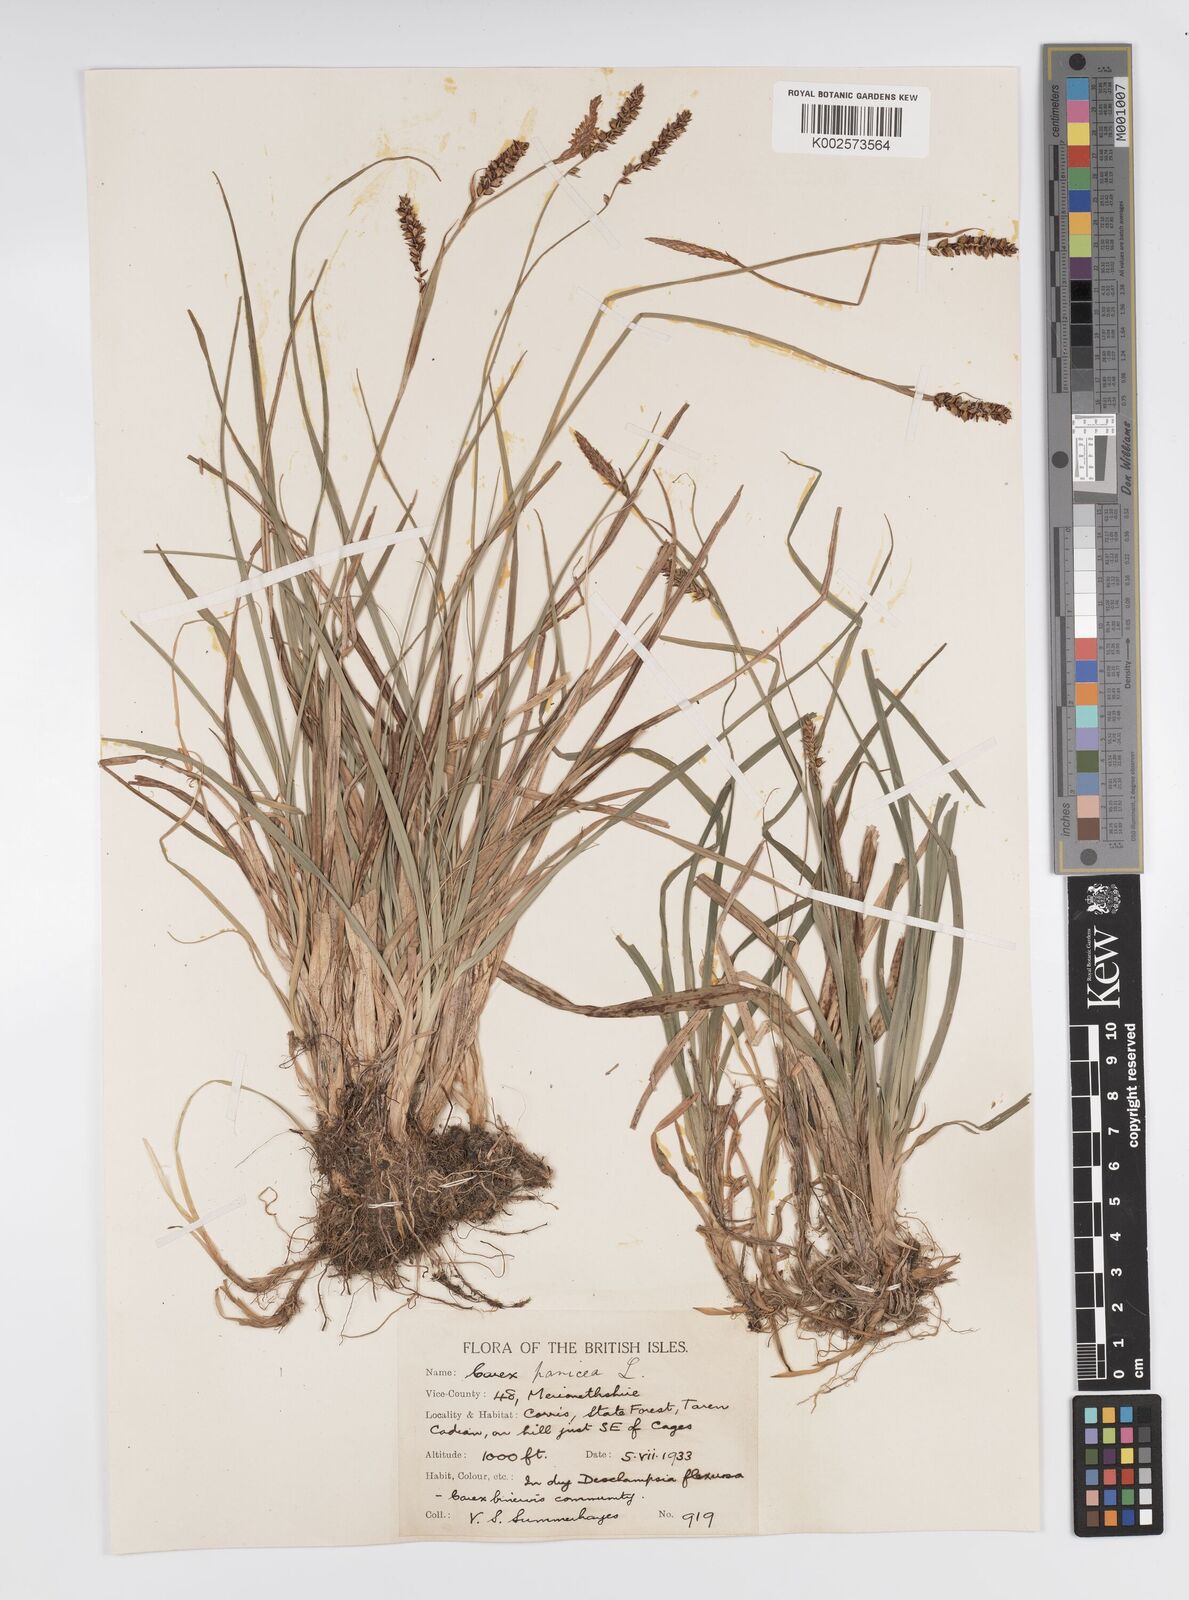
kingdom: Plantae
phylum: Tracheophyta
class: Liliopsida
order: Poales
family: Cyperaceae
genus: Carex
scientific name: Carex panicea
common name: Carnation sedge
